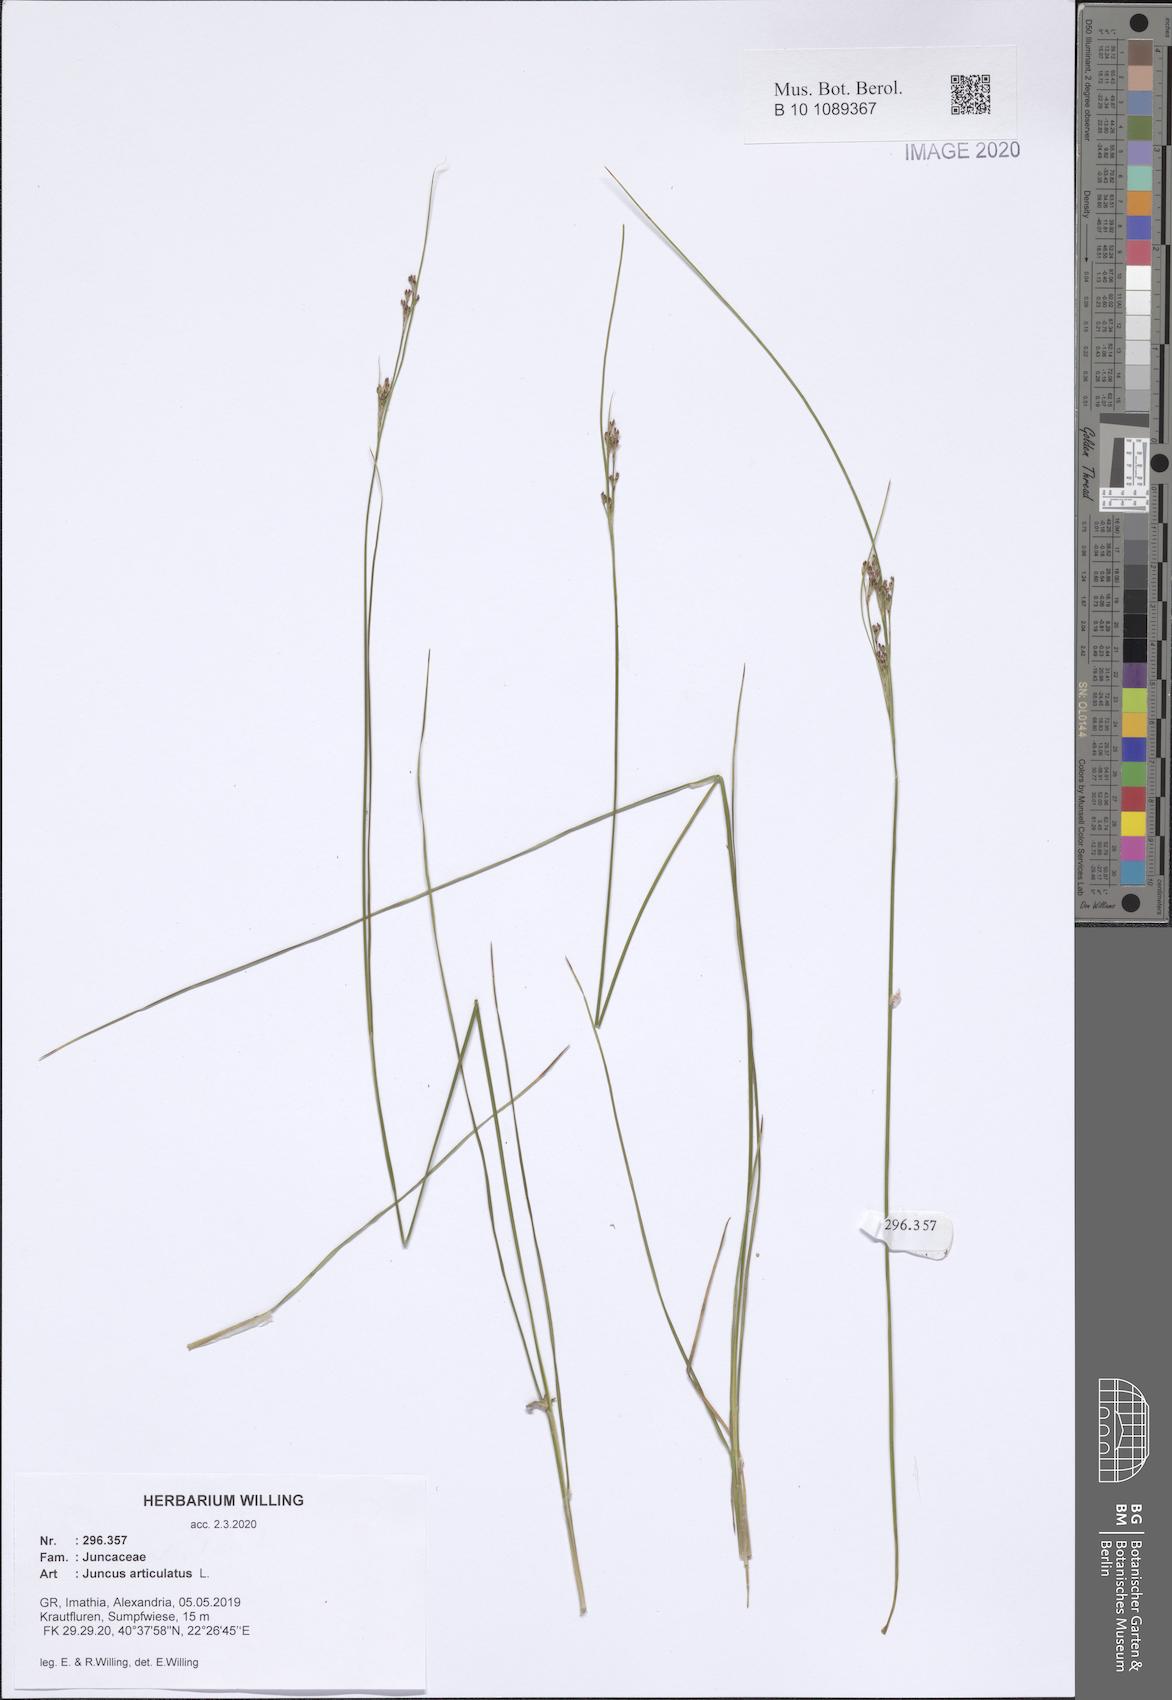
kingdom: Plantae
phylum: Tracheophyta
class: Liliopsida
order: Poales
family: Juncaceae
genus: Juncus
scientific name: Juncus articulatus
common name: Jointed rush
